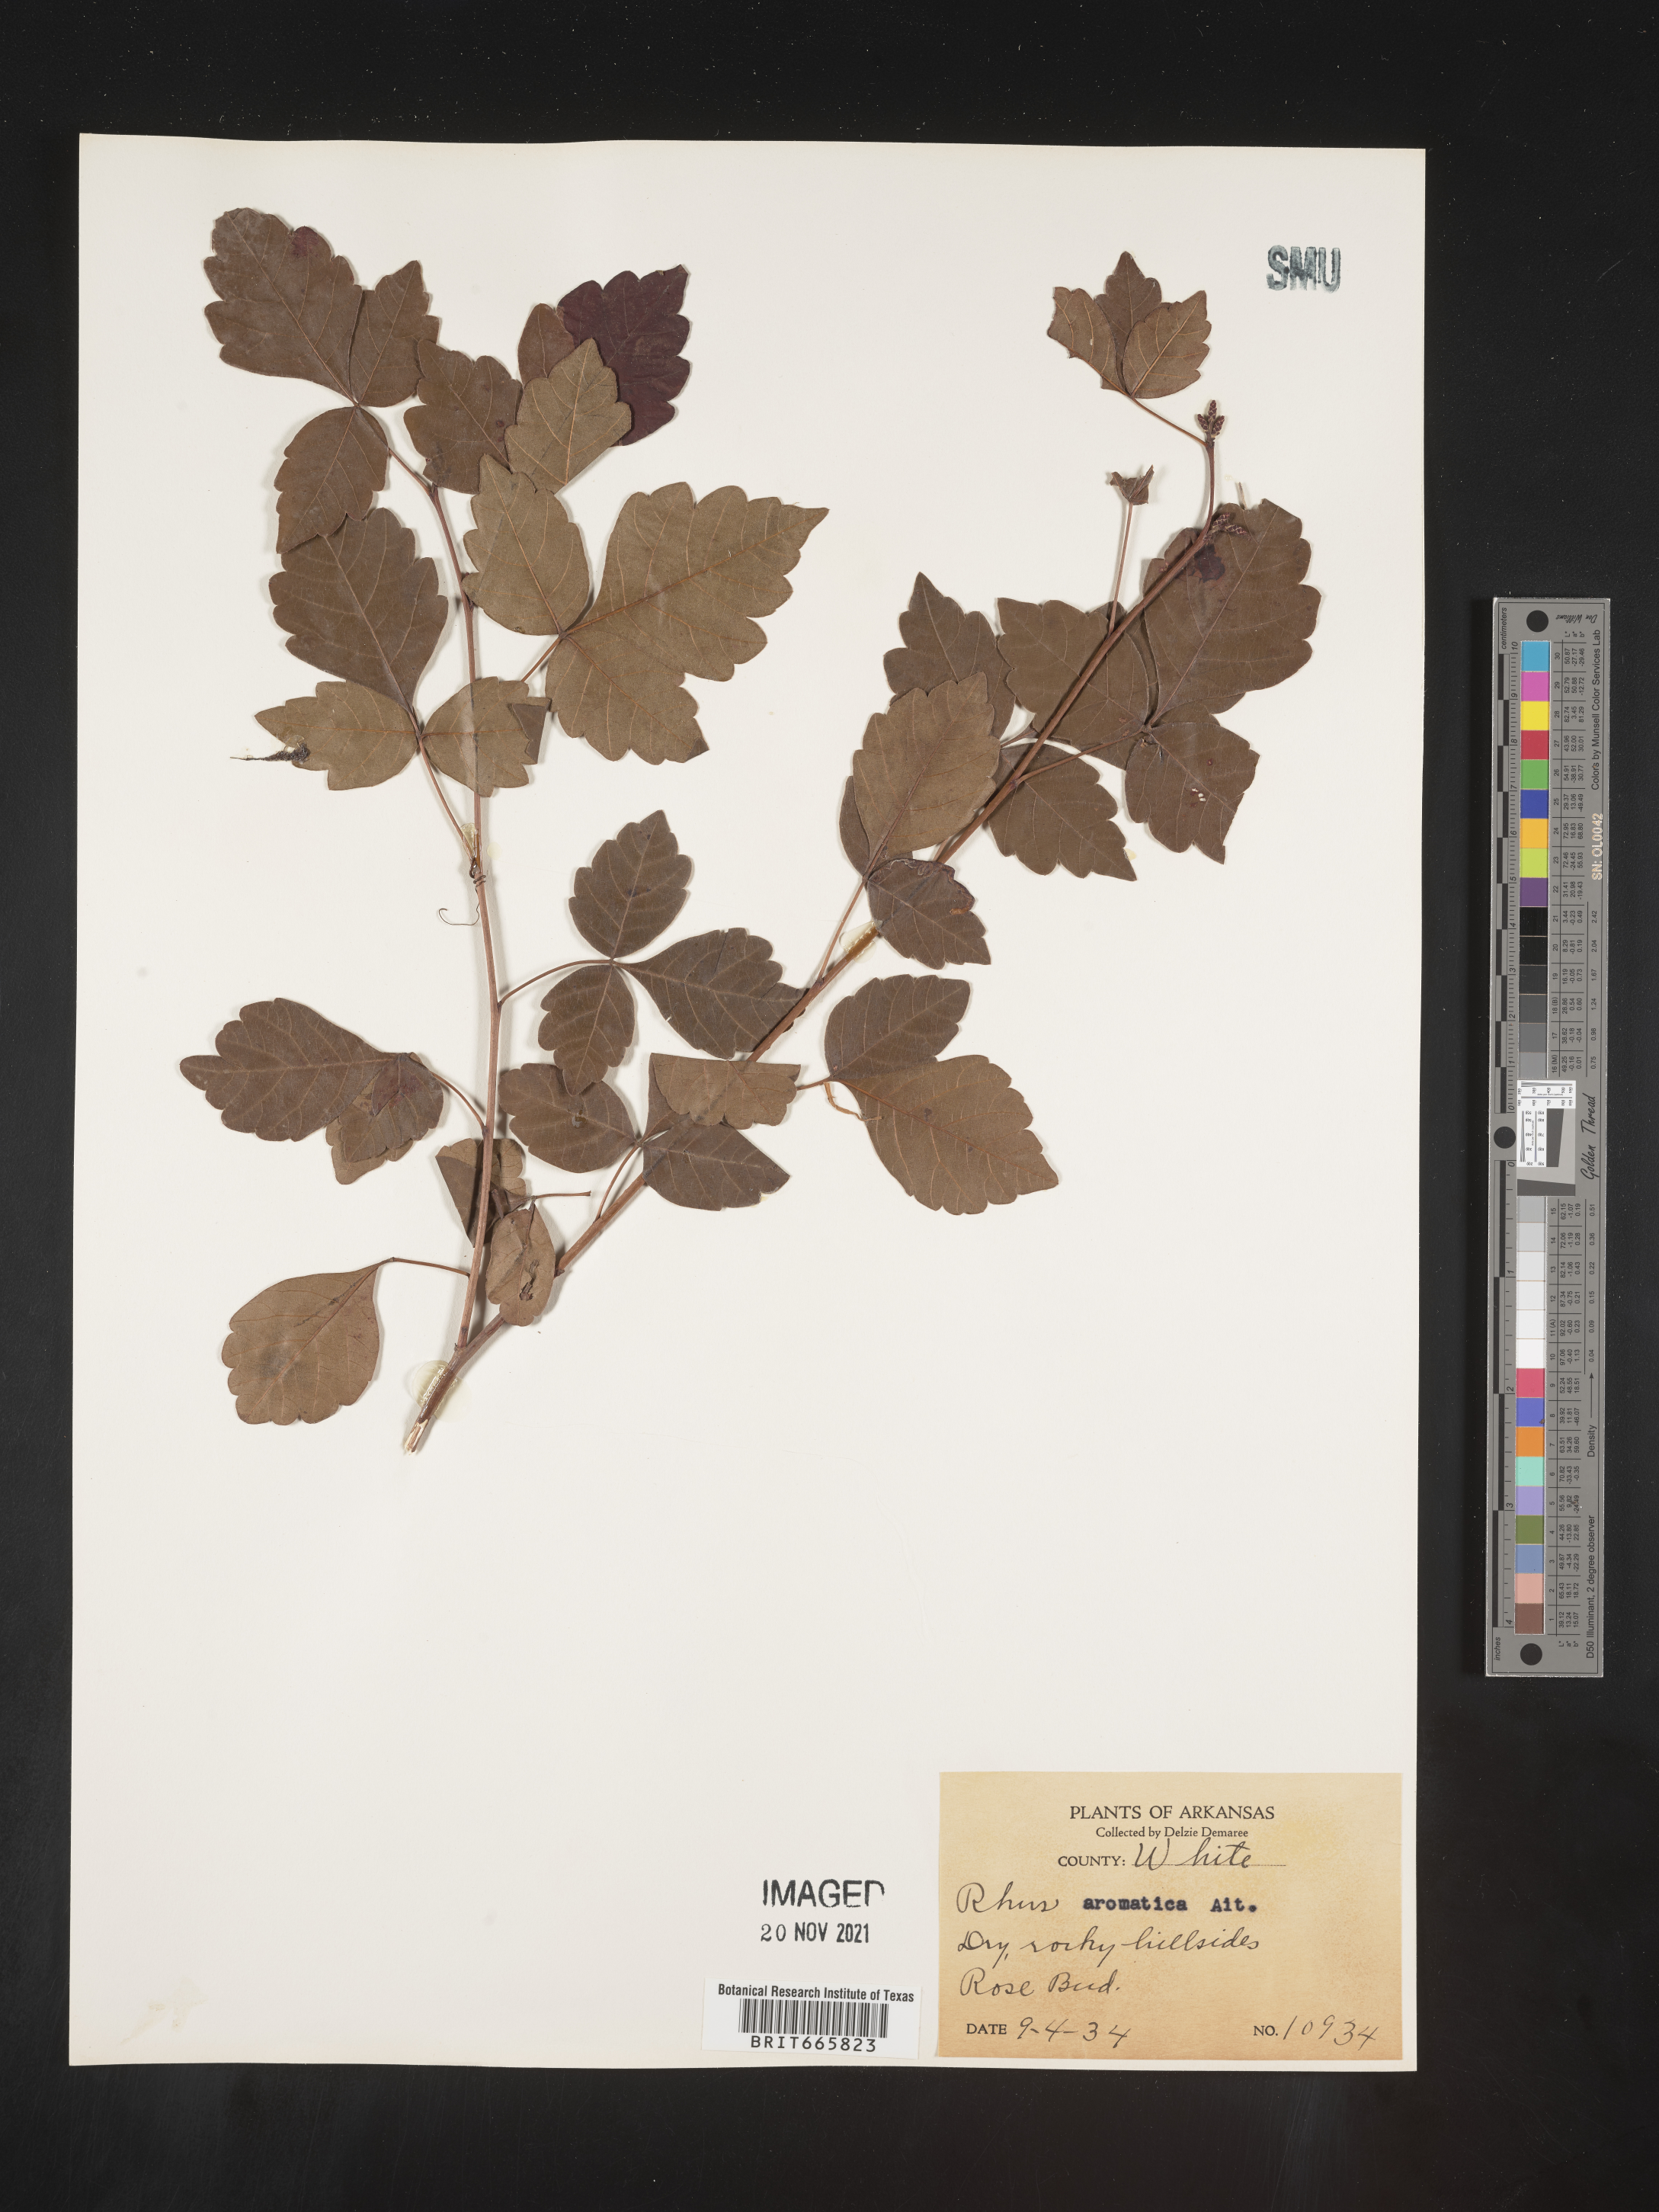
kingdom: Plantae
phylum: Tracheophyta
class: Magnoliopsida
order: Sapindales
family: Anacardiaceae
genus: Rhus
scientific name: Rhus aromatica
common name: Aromatic sumac
